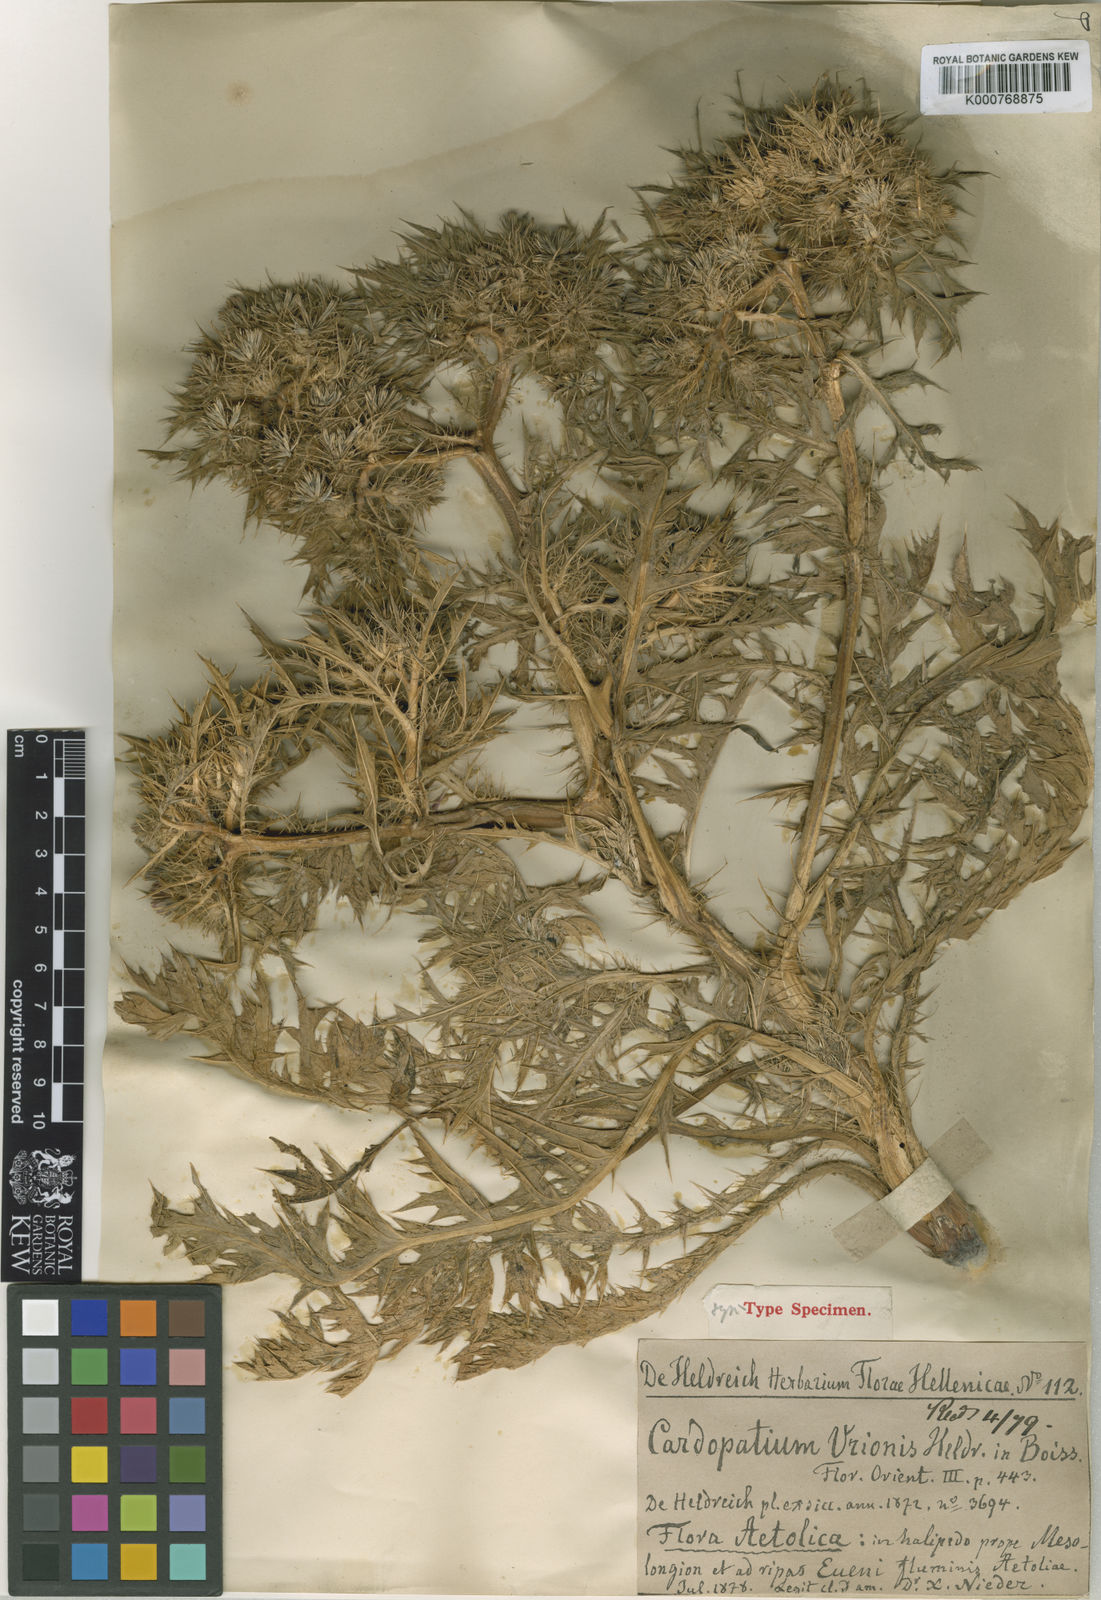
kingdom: Plantae
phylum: Tracheophyta
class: Magnoliopsida
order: Asterales
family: Asteraceae
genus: Cardopatium
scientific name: Cardopatium corymbosum
